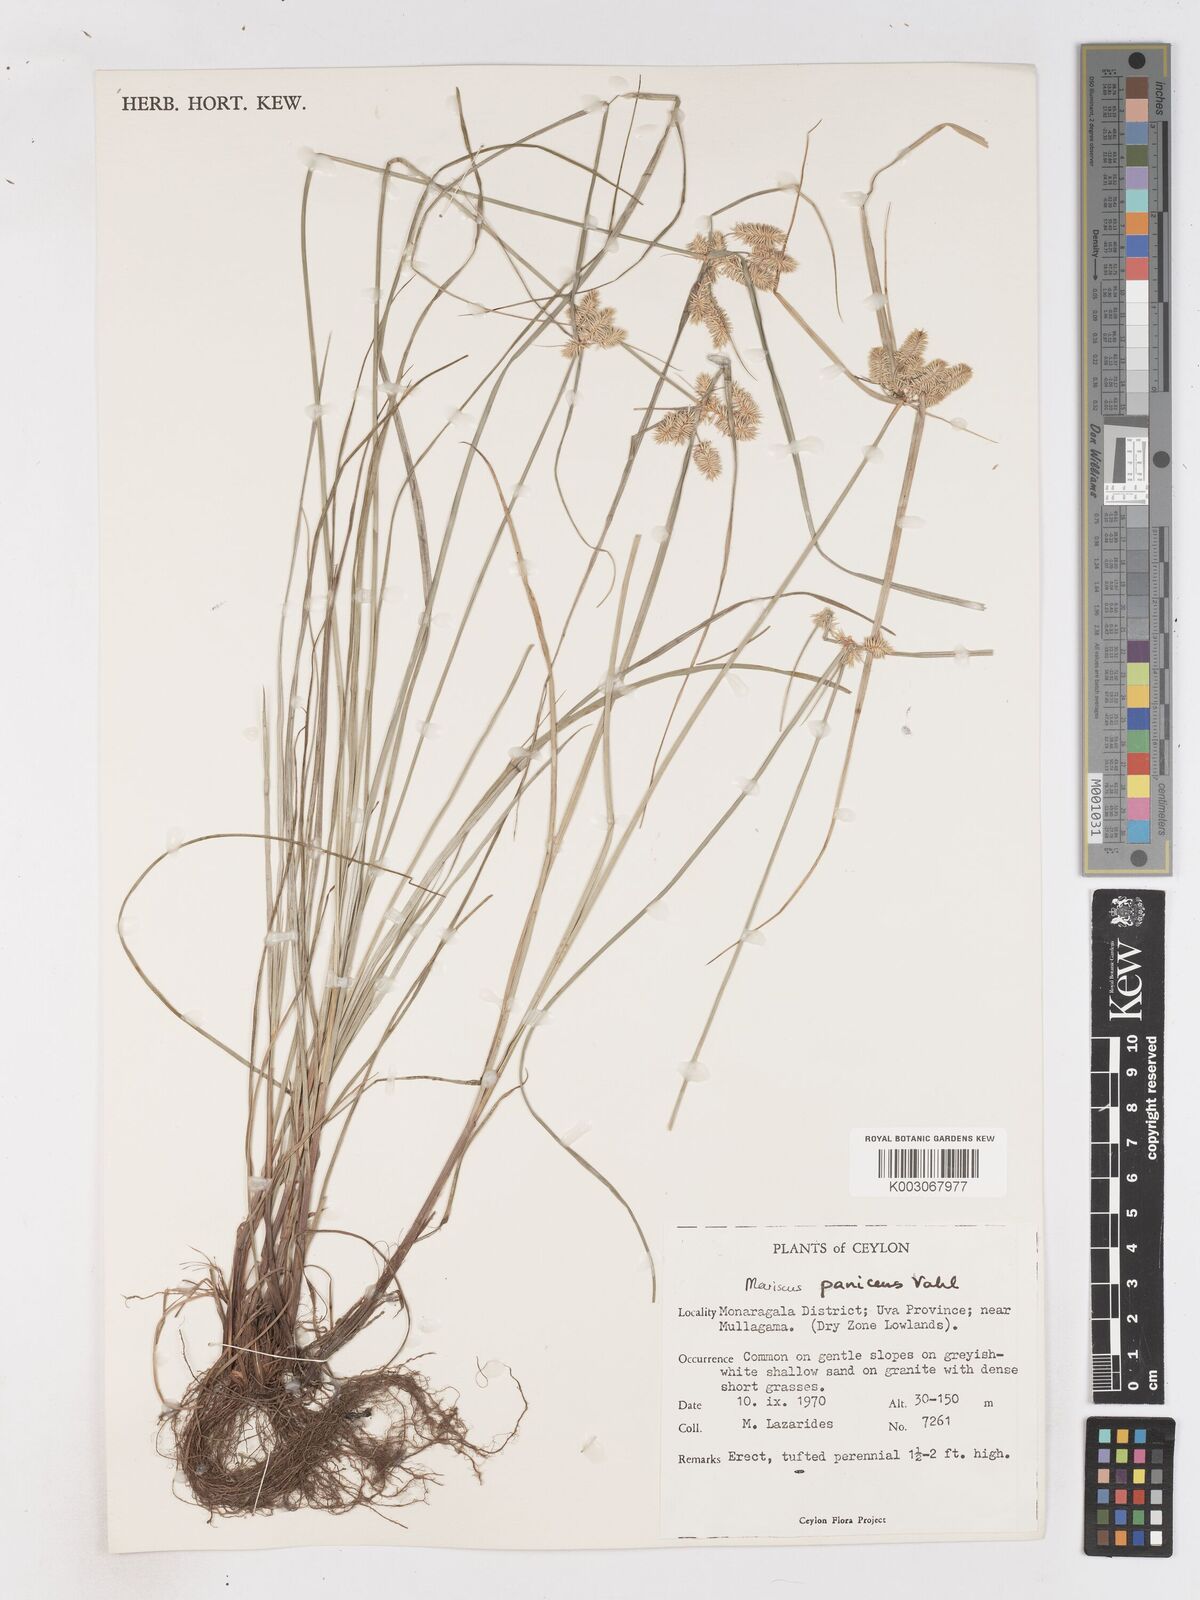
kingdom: Plantae
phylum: Tracheophyta
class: Liliopsida
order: Poales
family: Cyperaceae
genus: Cyperus
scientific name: Cyperus paniceus
